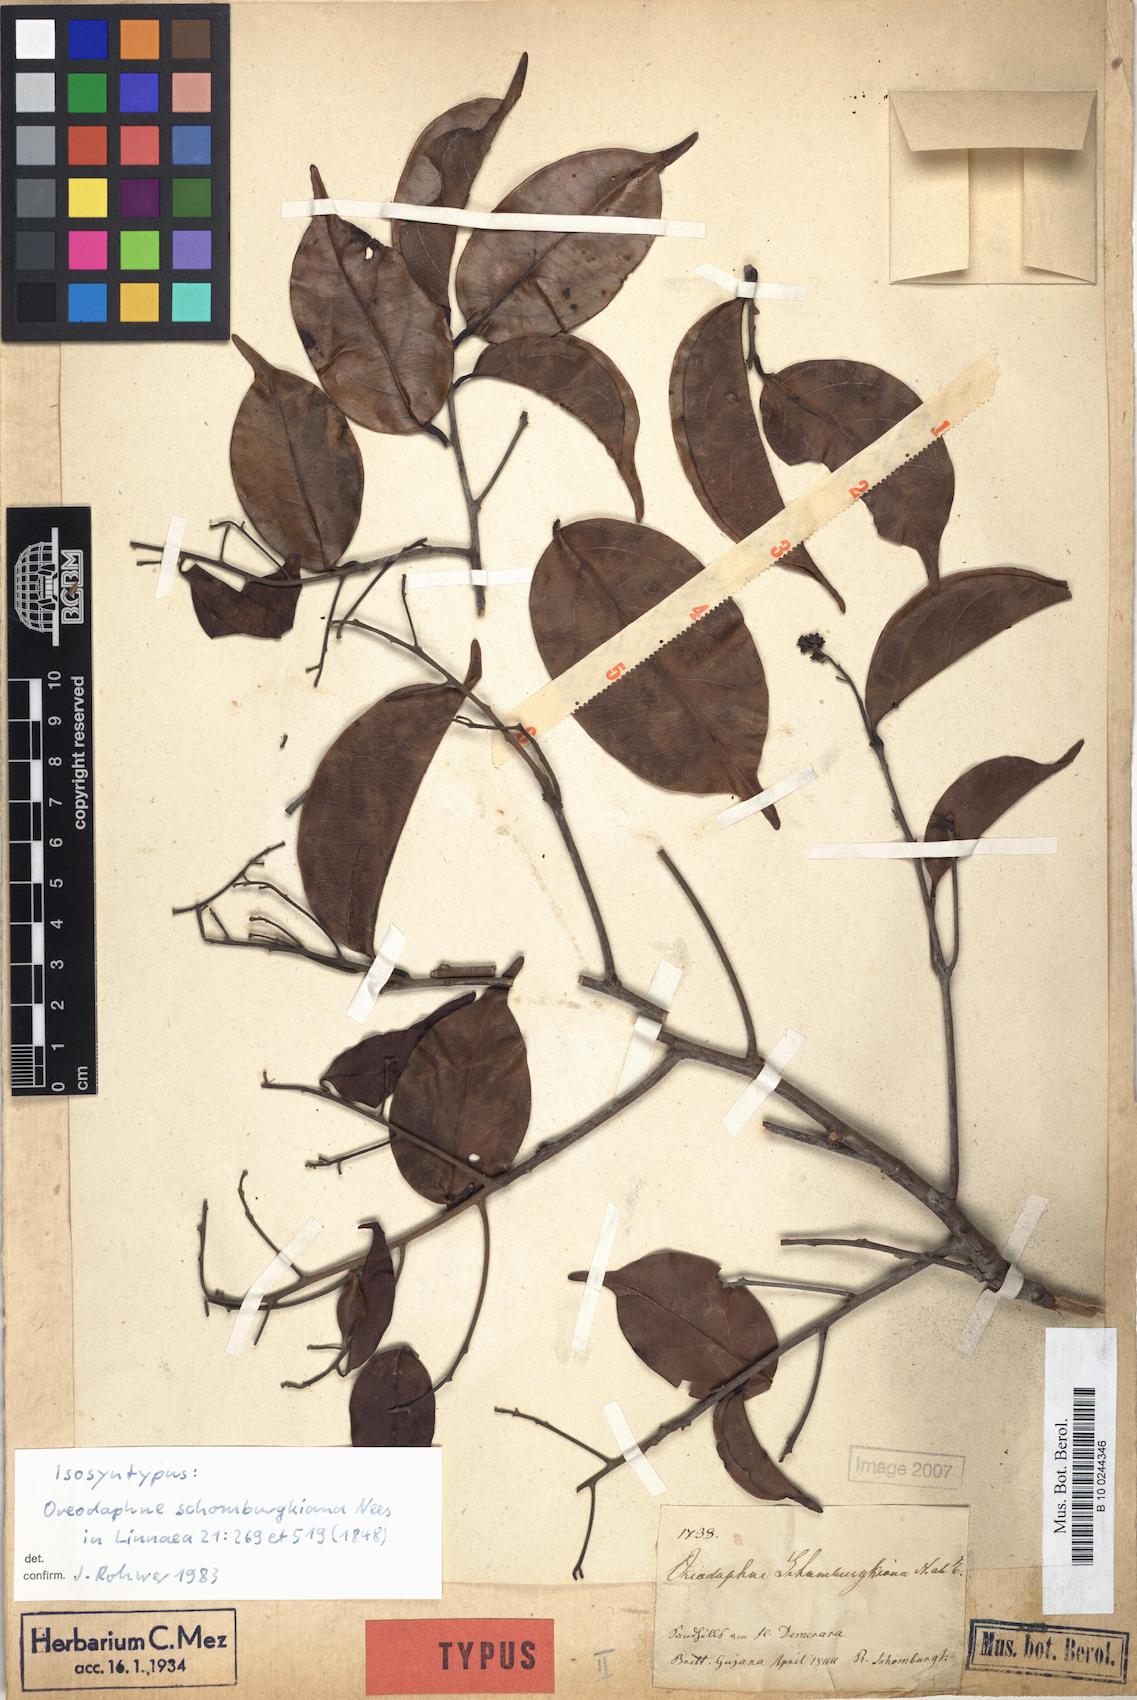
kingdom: Plantae
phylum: Tracheophyta
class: Magnoliopsida
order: Laurales
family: Lauraceae
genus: Ocotea
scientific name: Ocotea schomburgkiana
